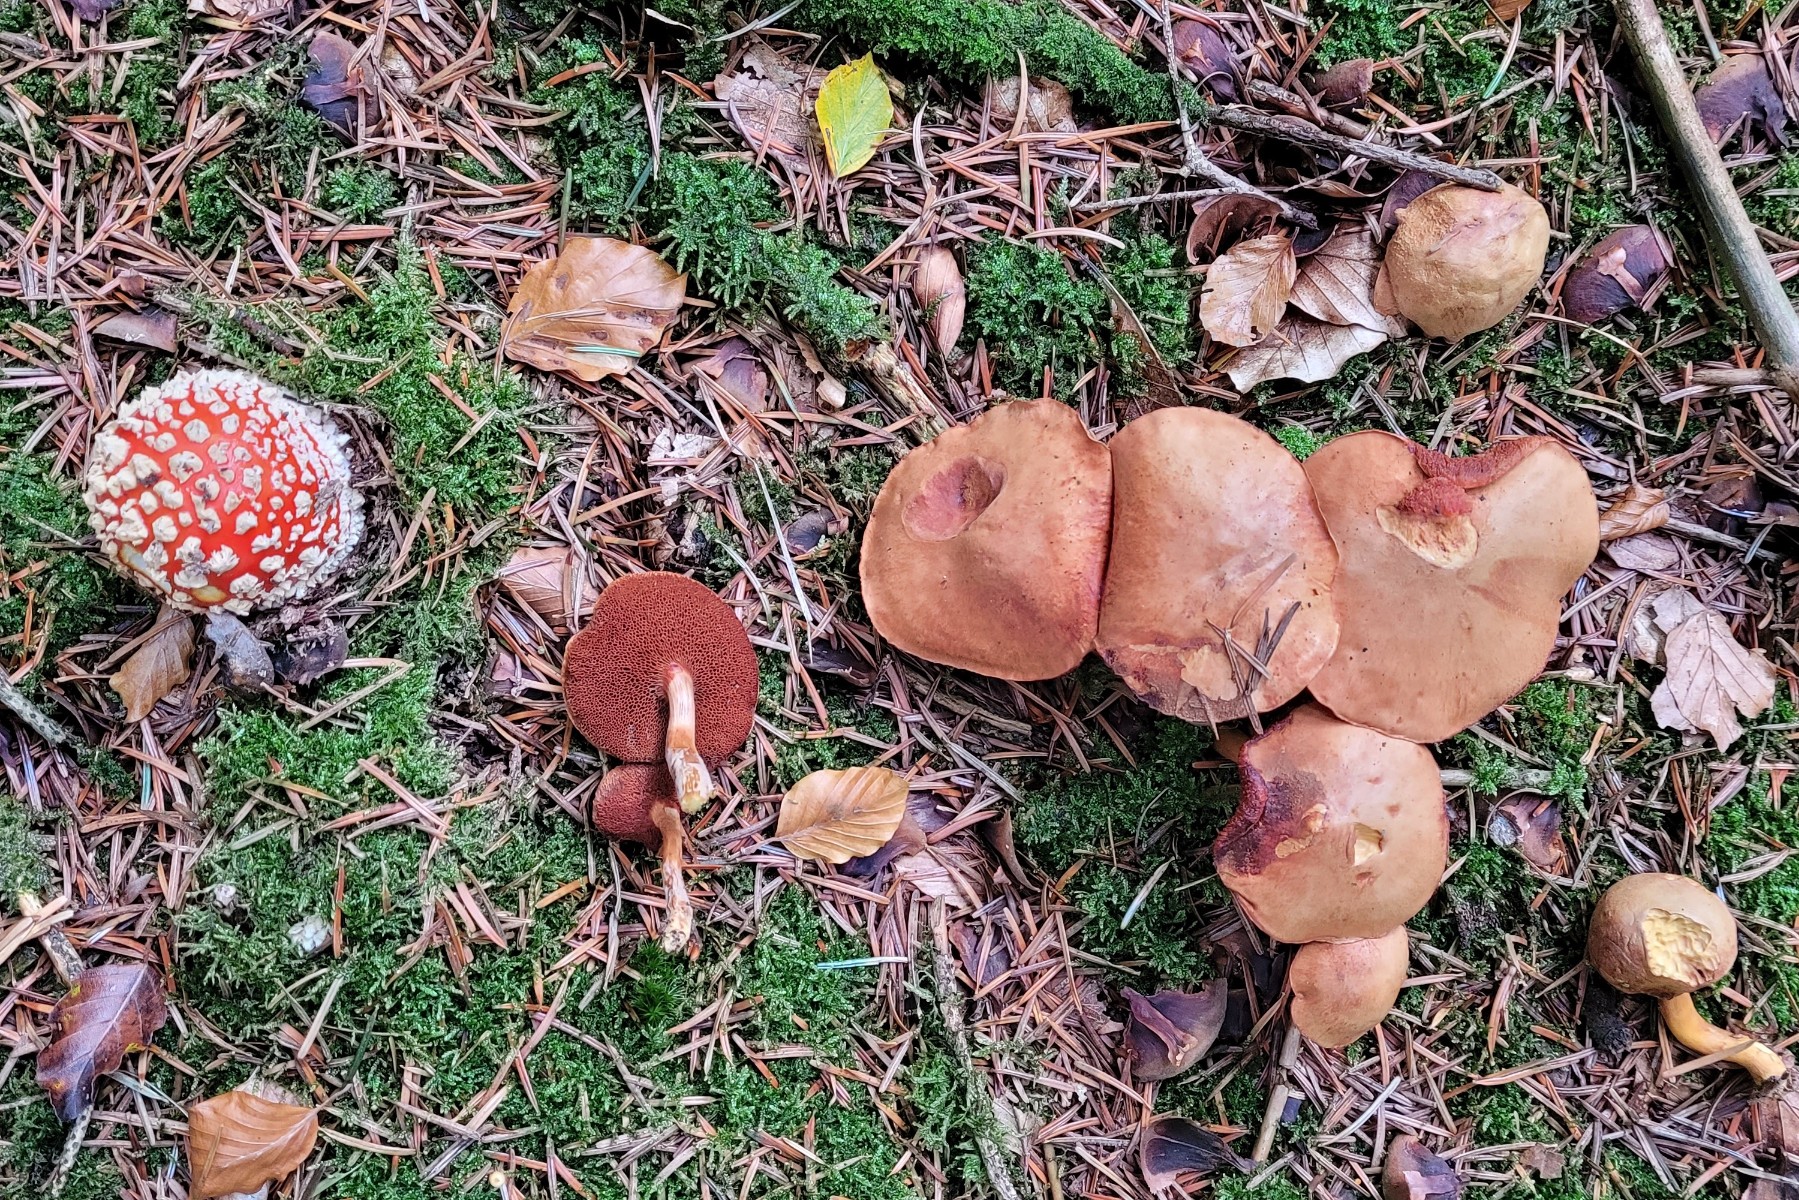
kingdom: Fungi
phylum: Basidiomycota
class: Agaricomycetes
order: Boletales
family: Boletaceae
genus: Chalciporus
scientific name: Chalciporus piperatus
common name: peberrørhat
